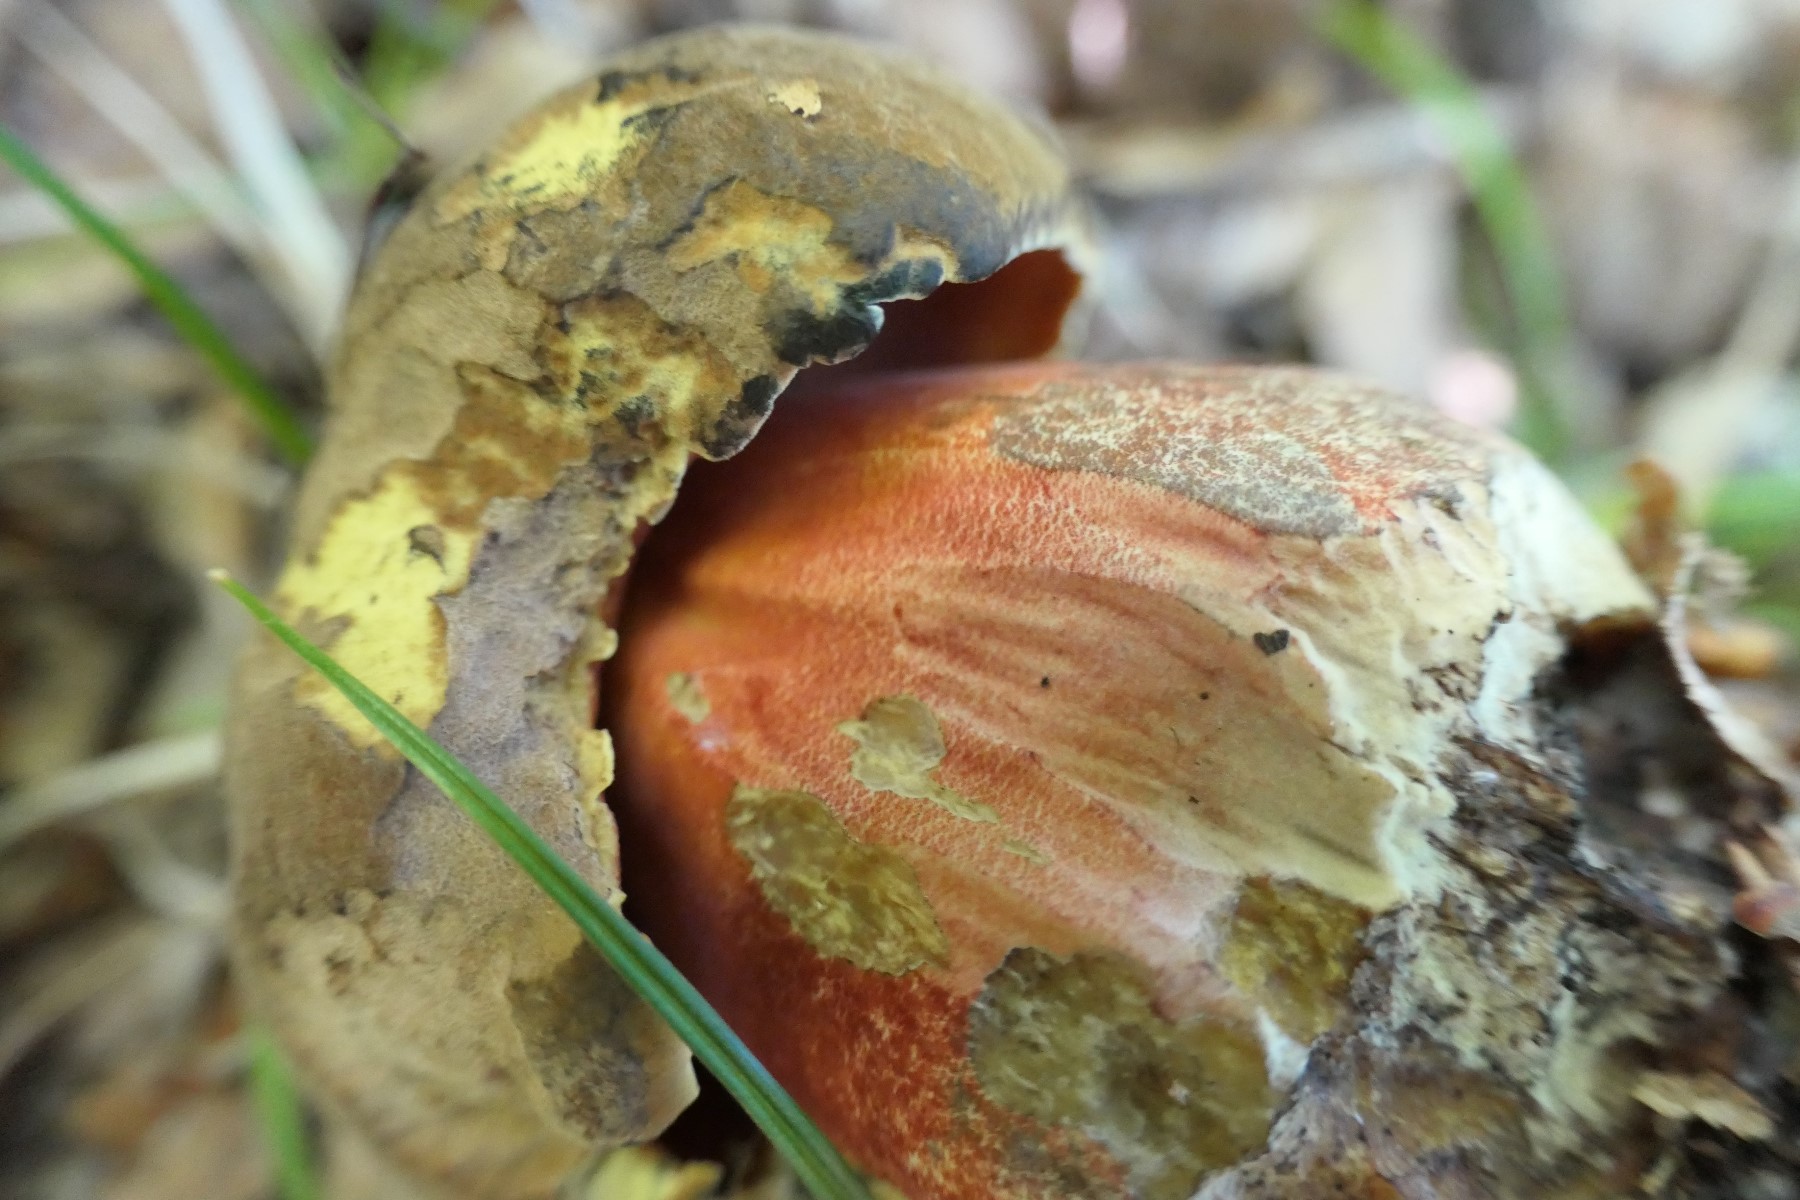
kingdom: Fungi
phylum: Basidiomycota
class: Agaricomycetes
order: Boletales
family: Boletaceae
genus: Neoboletus
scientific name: Neoboletus erythropus
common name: punktstokket indigorørhat
